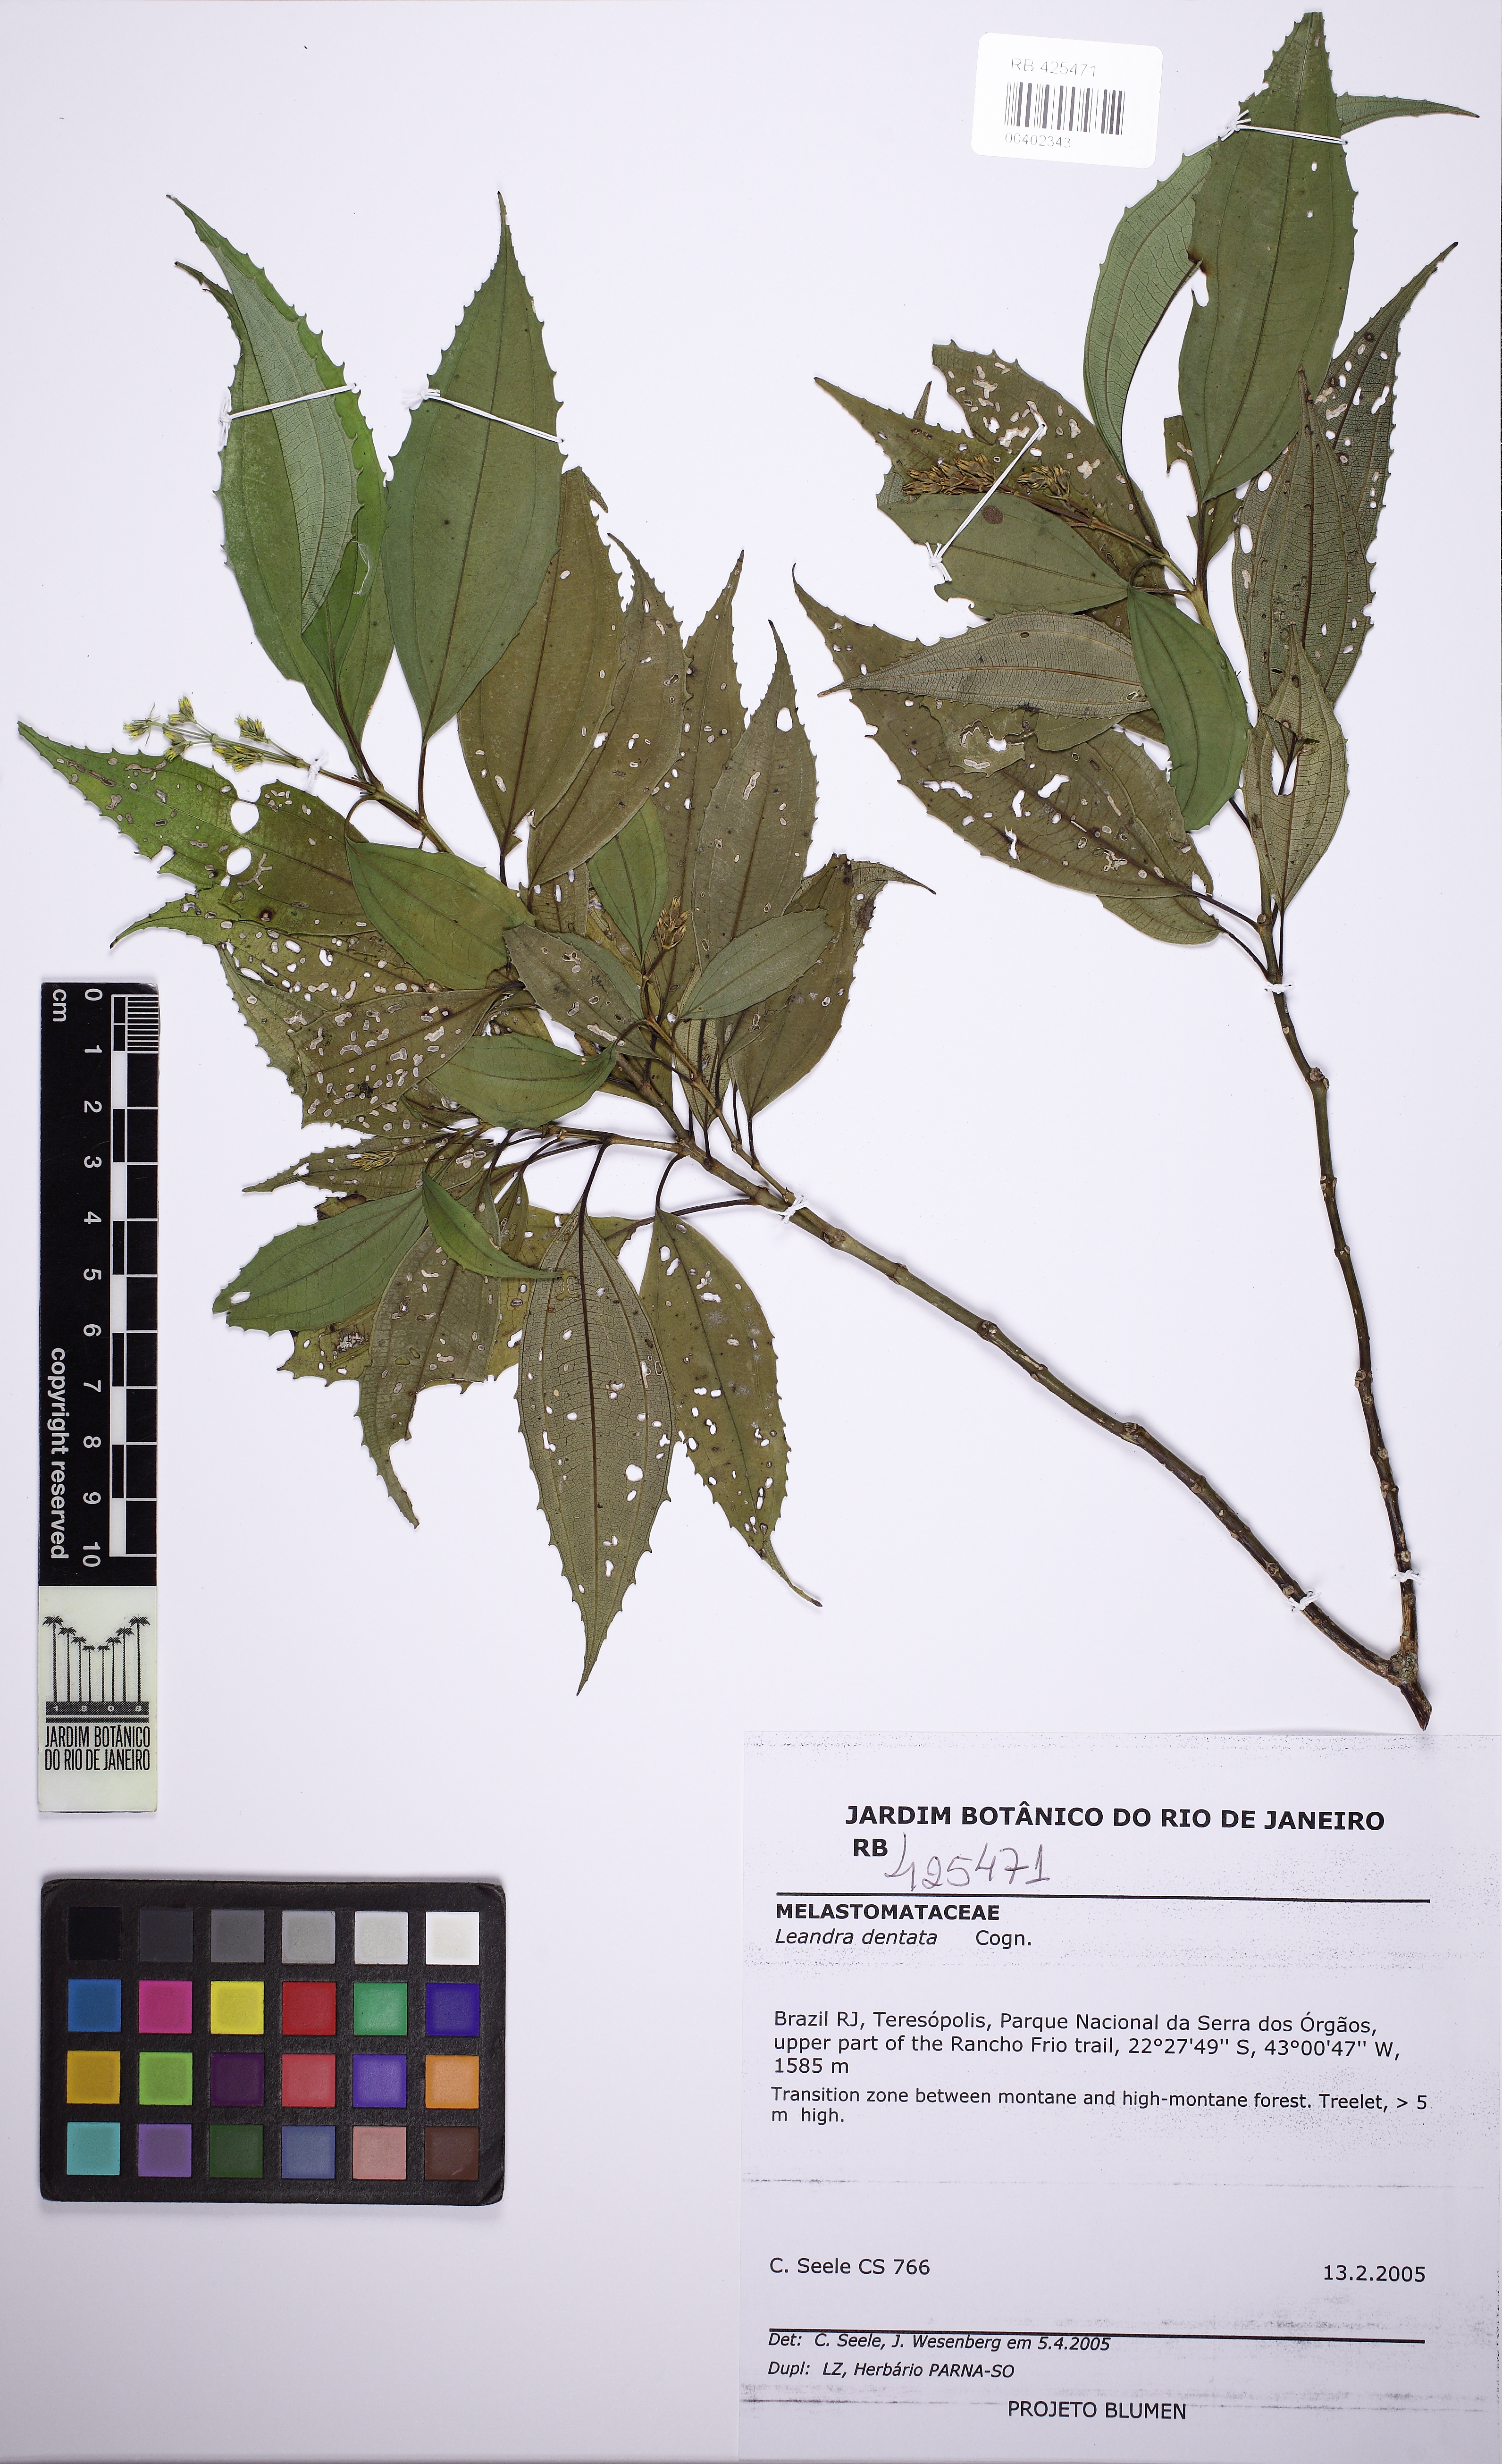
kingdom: Plantae
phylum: Tracheophyta
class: Magnoliopsida
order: Myrtales
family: Melastomataceae
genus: Miconia
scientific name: Miconia leadentata
